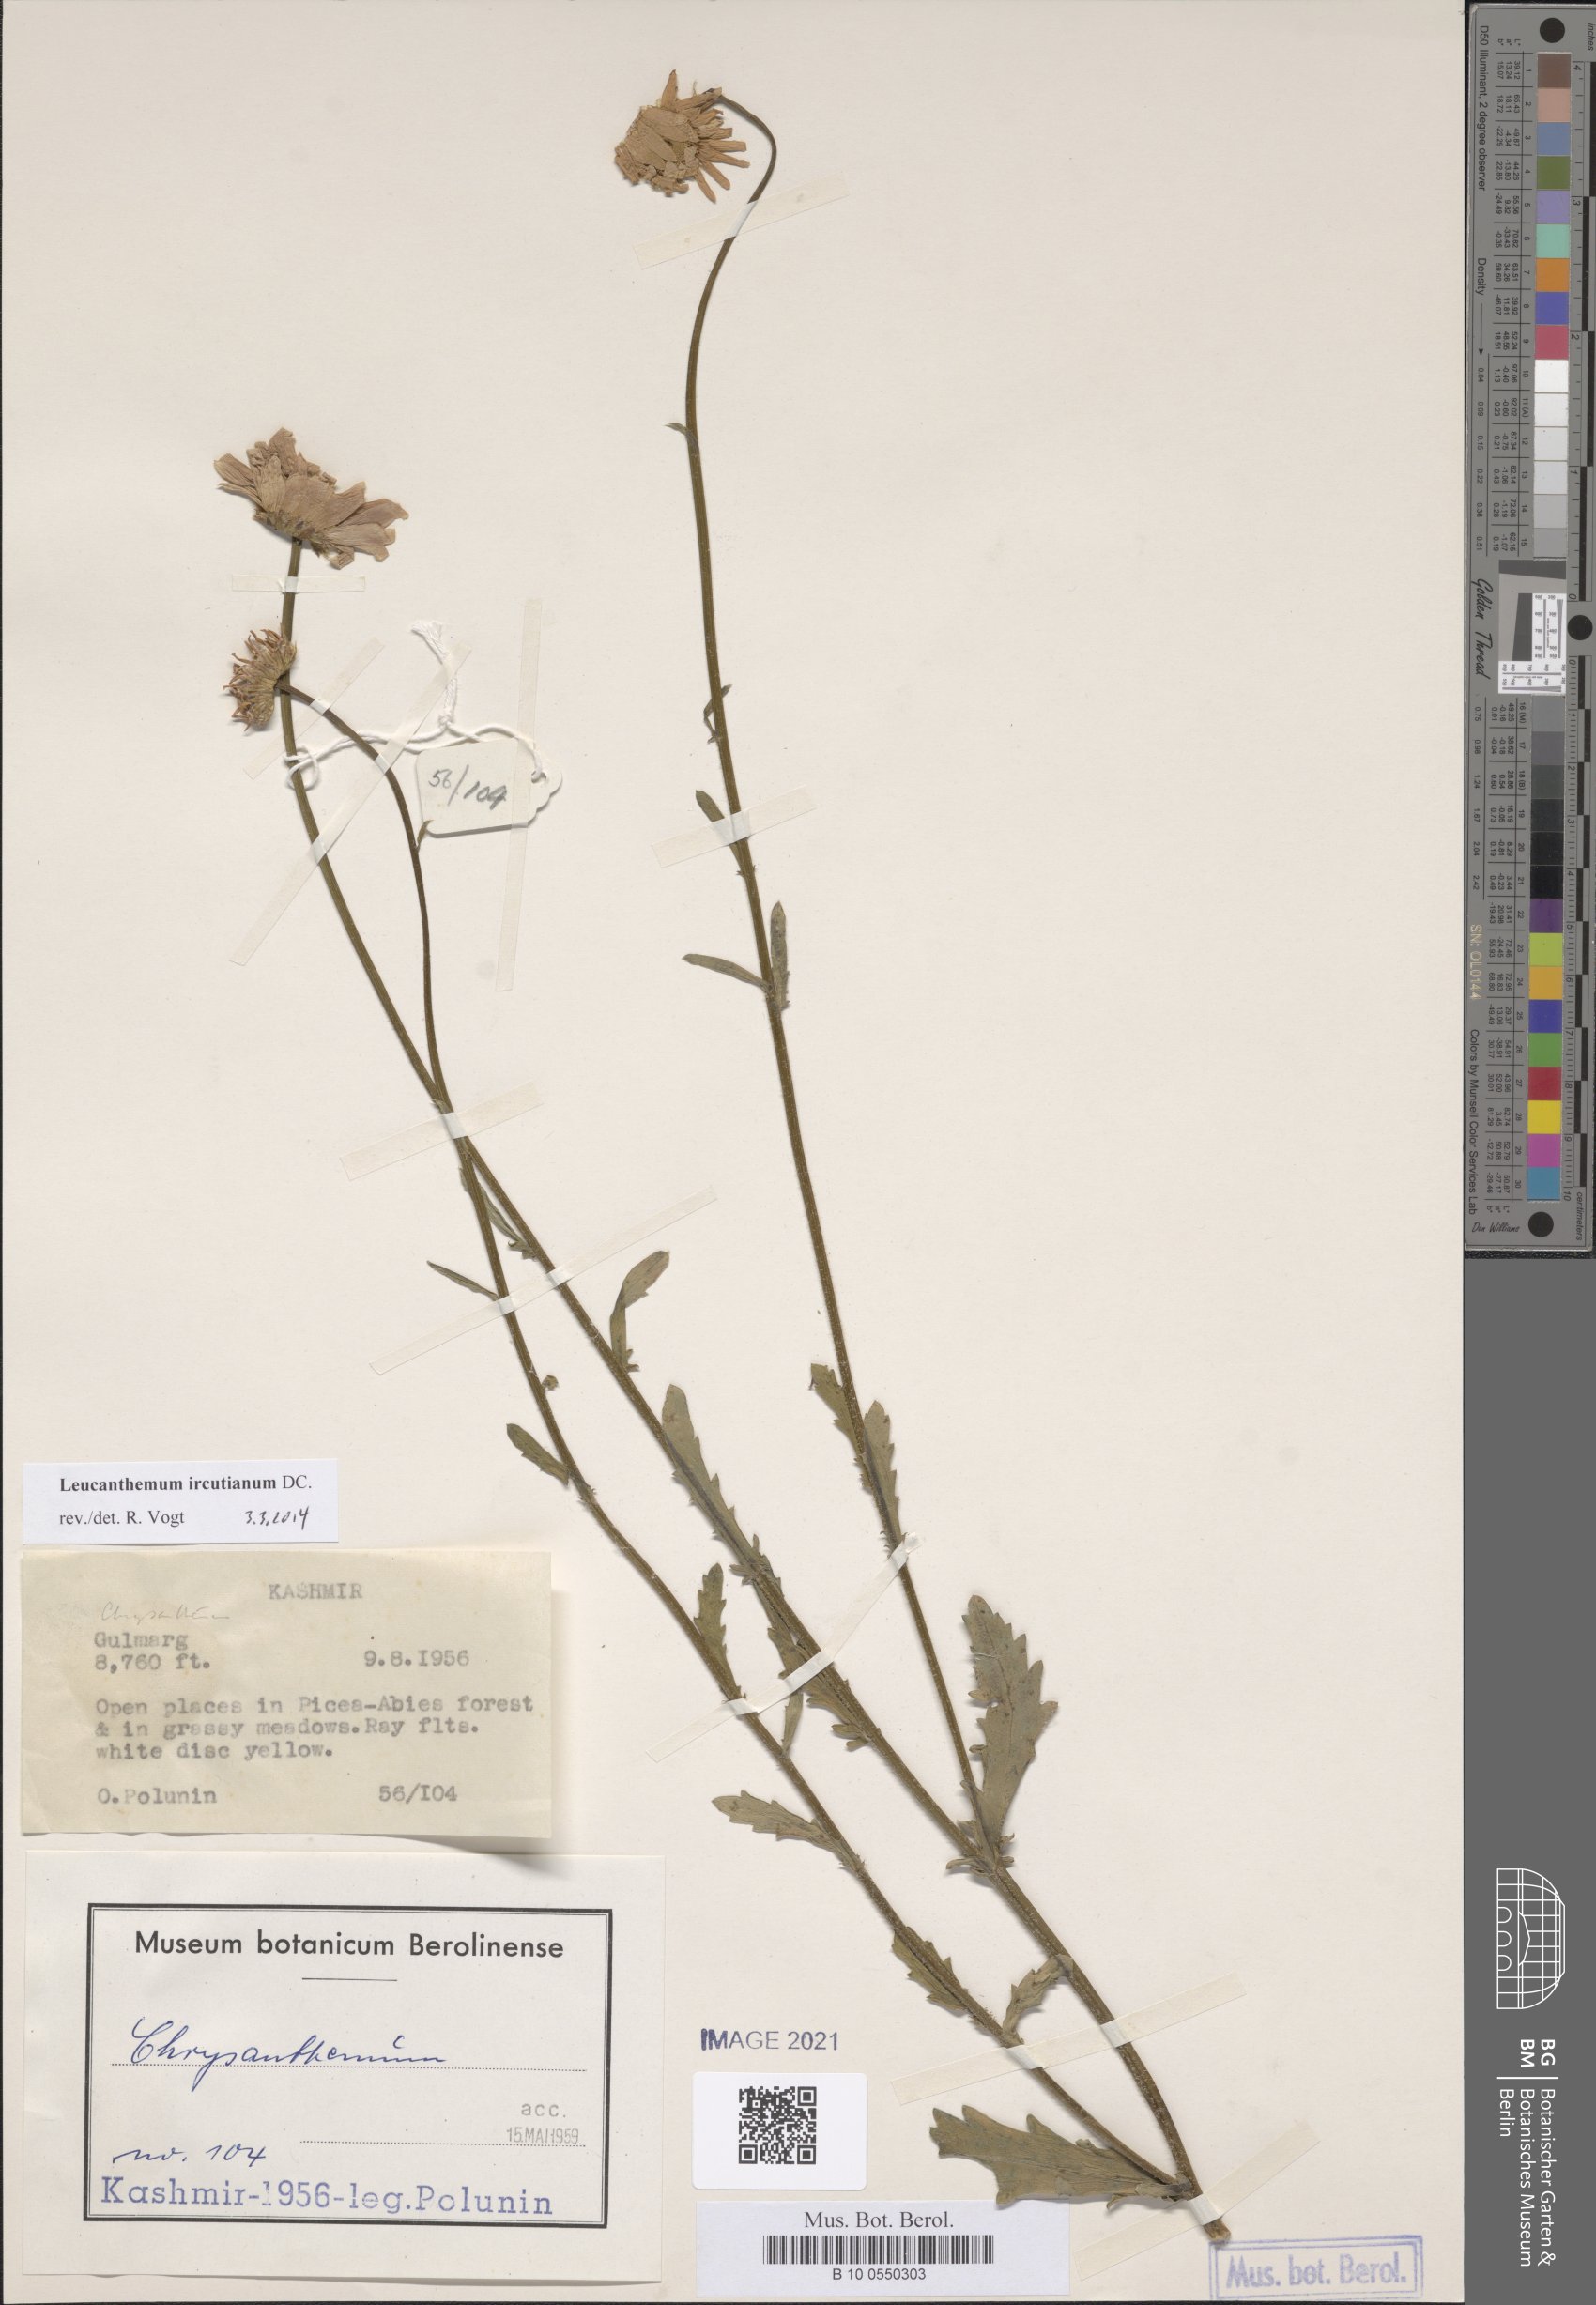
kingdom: Plantae
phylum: Tracheophyta
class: Magnoliopsida
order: Asterales
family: Asteraceae
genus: Leucanthemum
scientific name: Leucanthemum ircutianum
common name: Daisy
